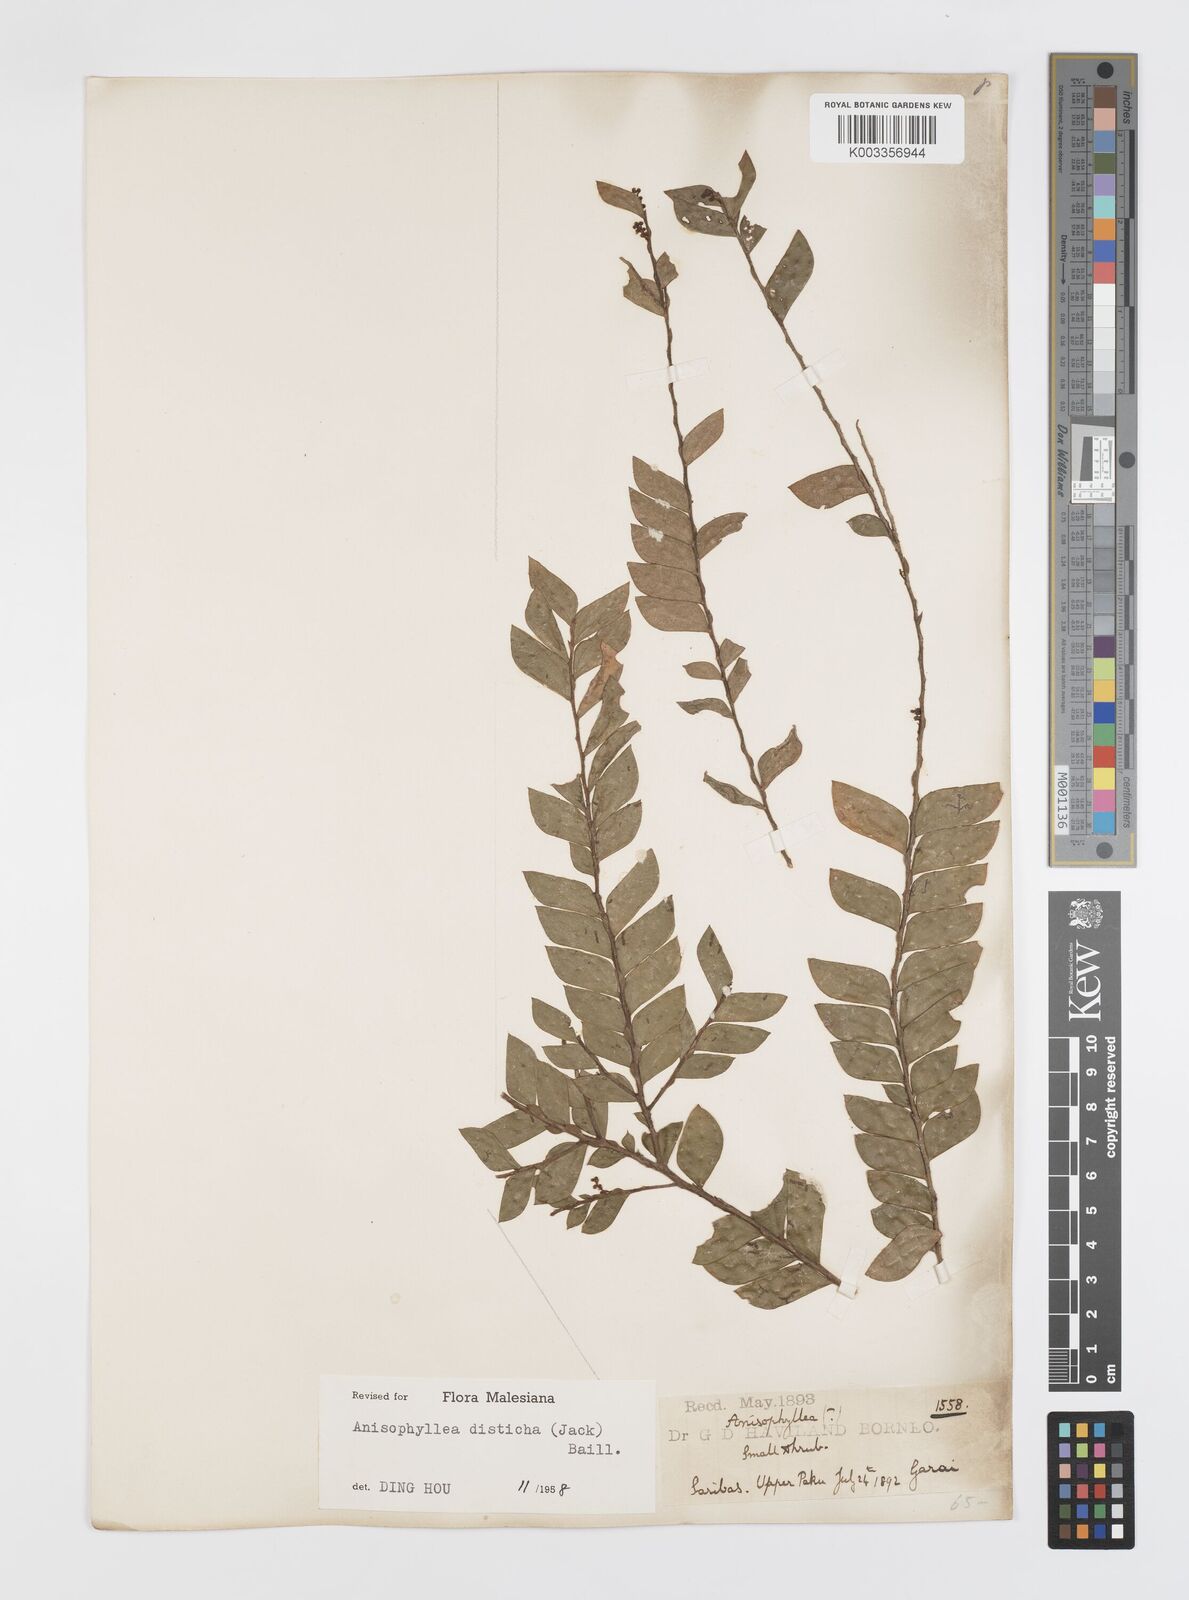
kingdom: Plantae
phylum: Tracheophyta
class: Magnoliopsida
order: Cucurbitales
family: Anisophylleaceae
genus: Anisophyllea
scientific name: Anisophyllea disticha
